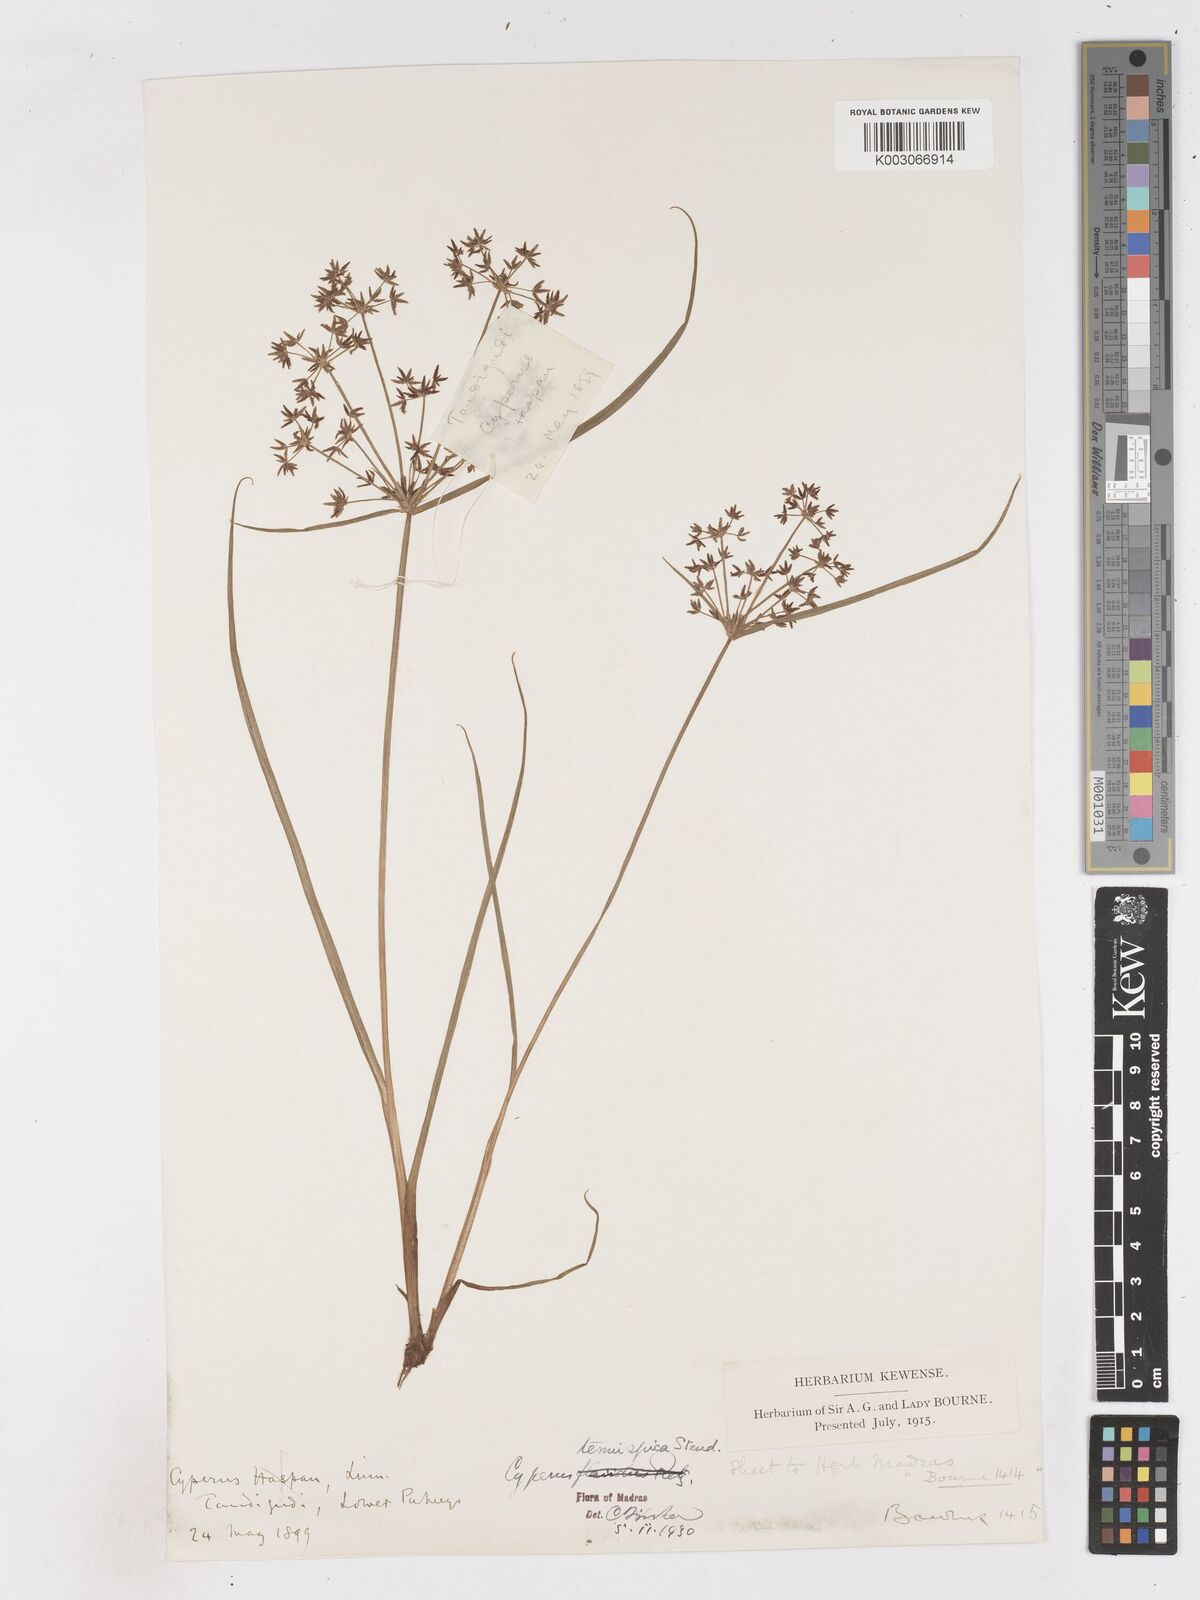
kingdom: Plantae
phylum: Tracheophyta
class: Liliopsida
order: Poales
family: Cyperaceae
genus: Cyperus
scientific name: Cyperus tenuispica
